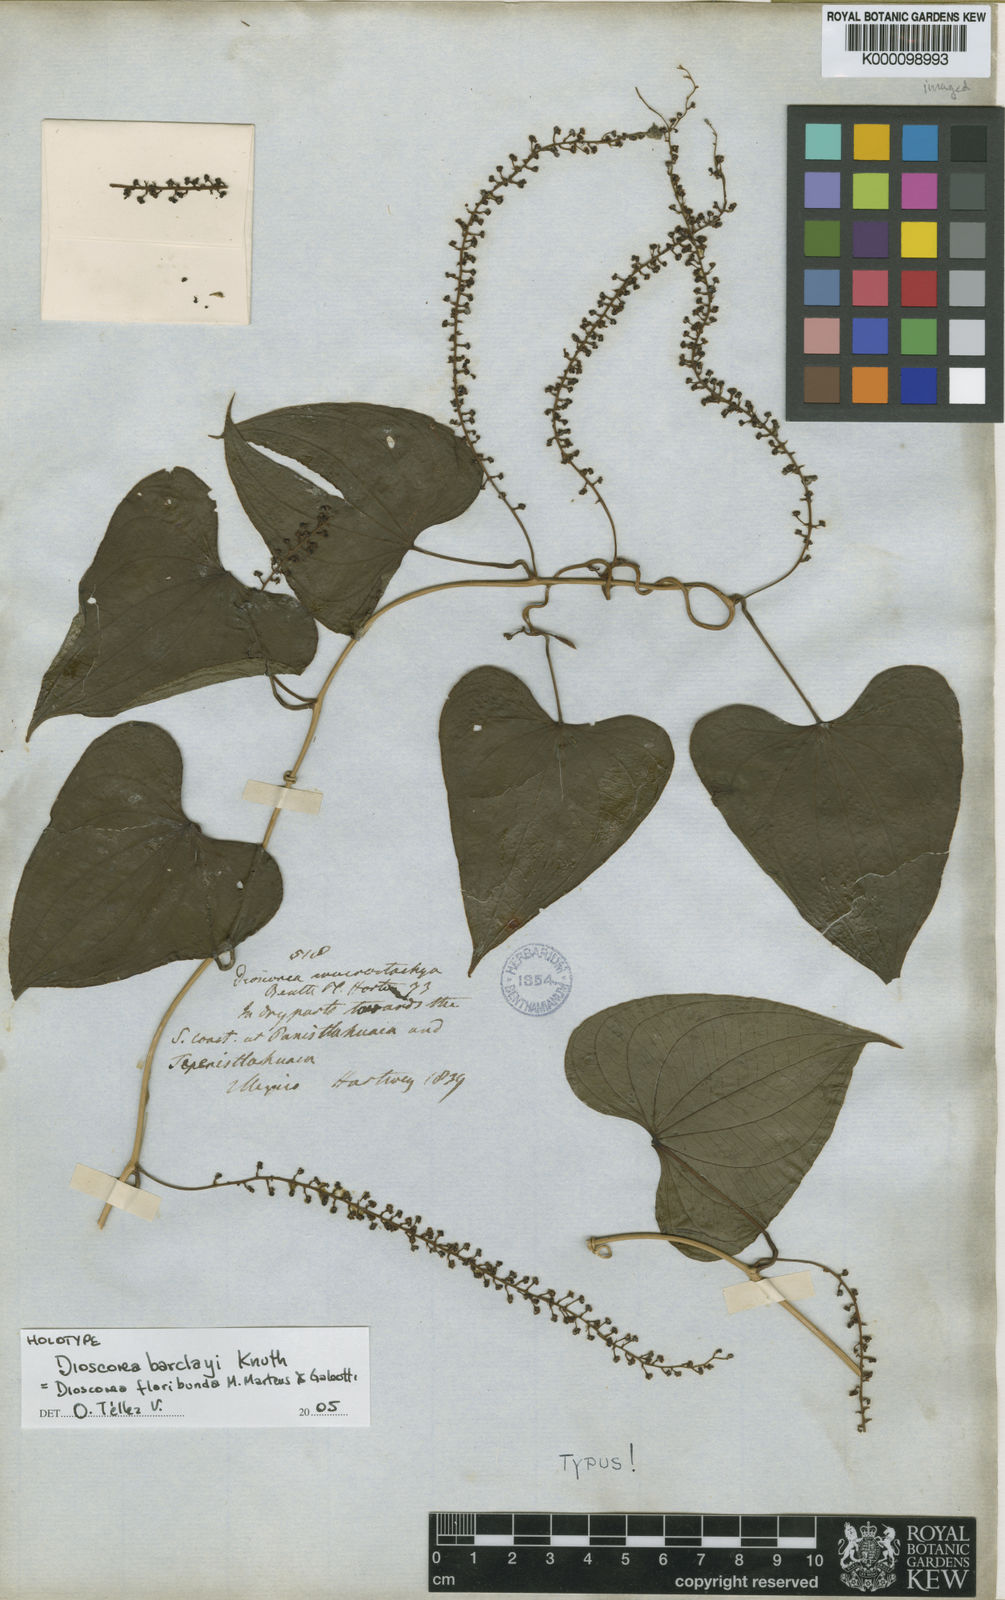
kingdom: Plantae
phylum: Tracheophyta
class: Liliopsida
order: Dioscoreales
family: Dioscoreaceae
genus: Dioscorea
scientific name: Dioscorea mexicana
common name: Mexican yam
